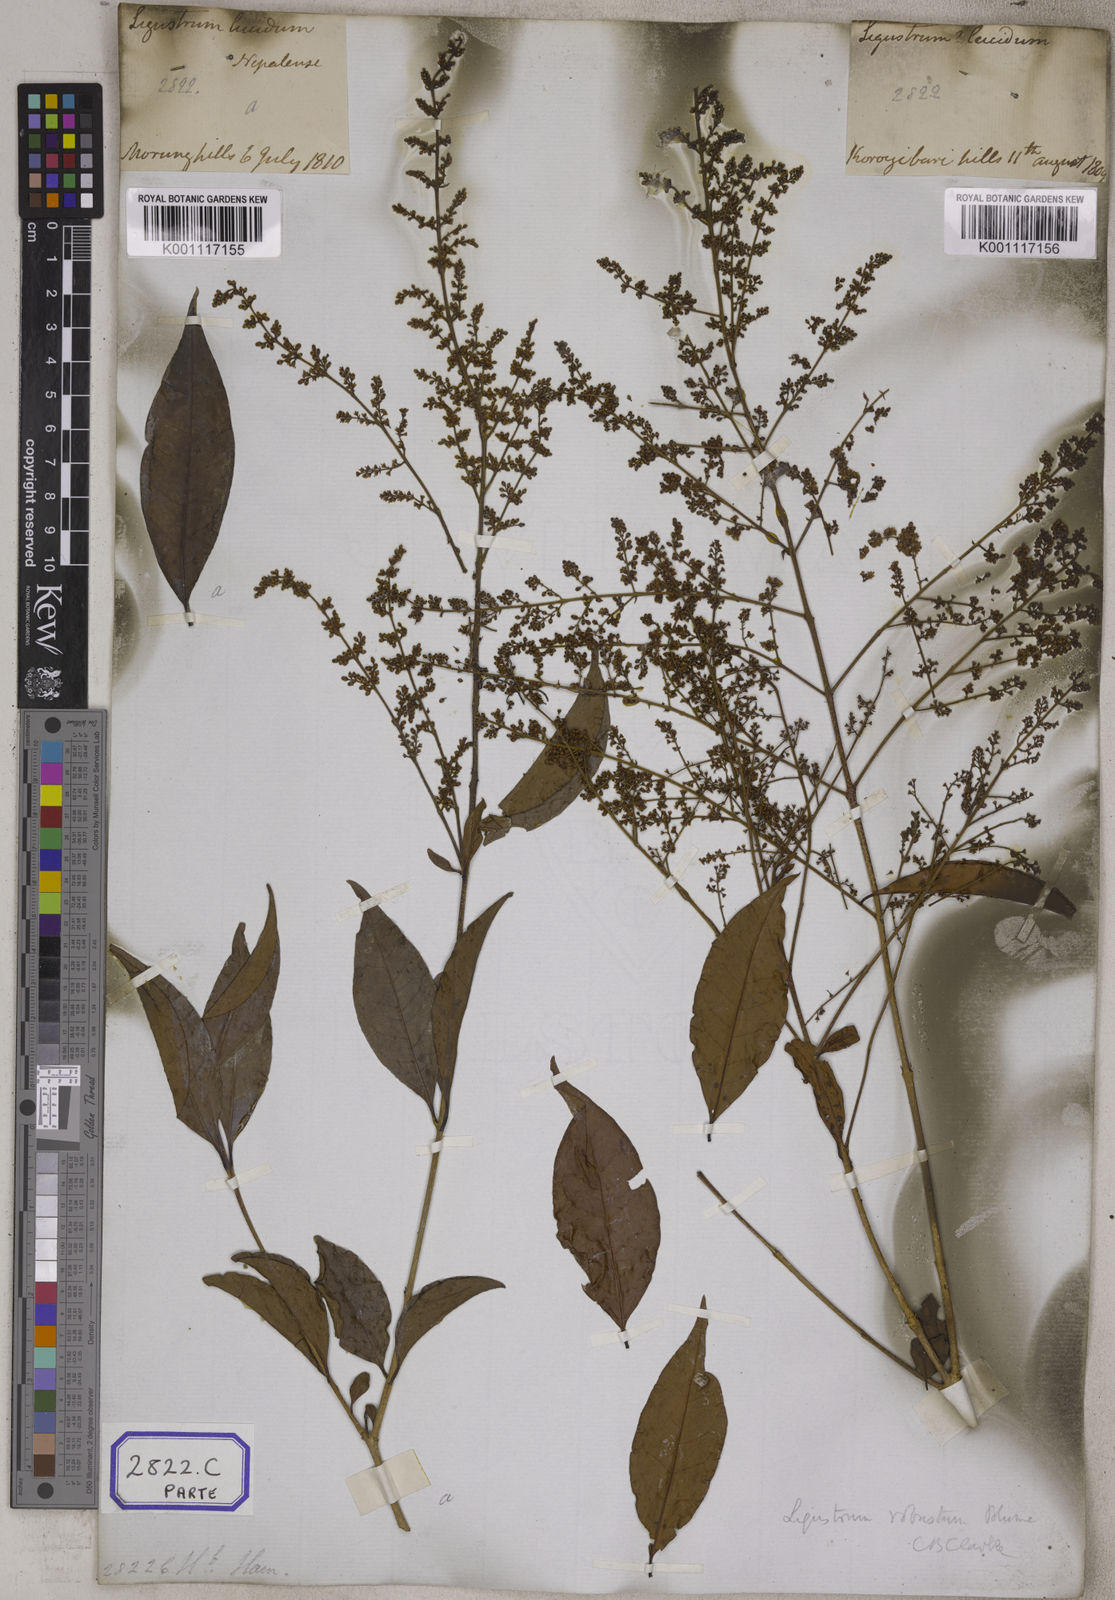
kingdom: Plantae
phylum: Tracheophyta
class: Magnoliopsida
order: Lamiales
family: Oleaceae
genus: Olea
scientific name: Olea
